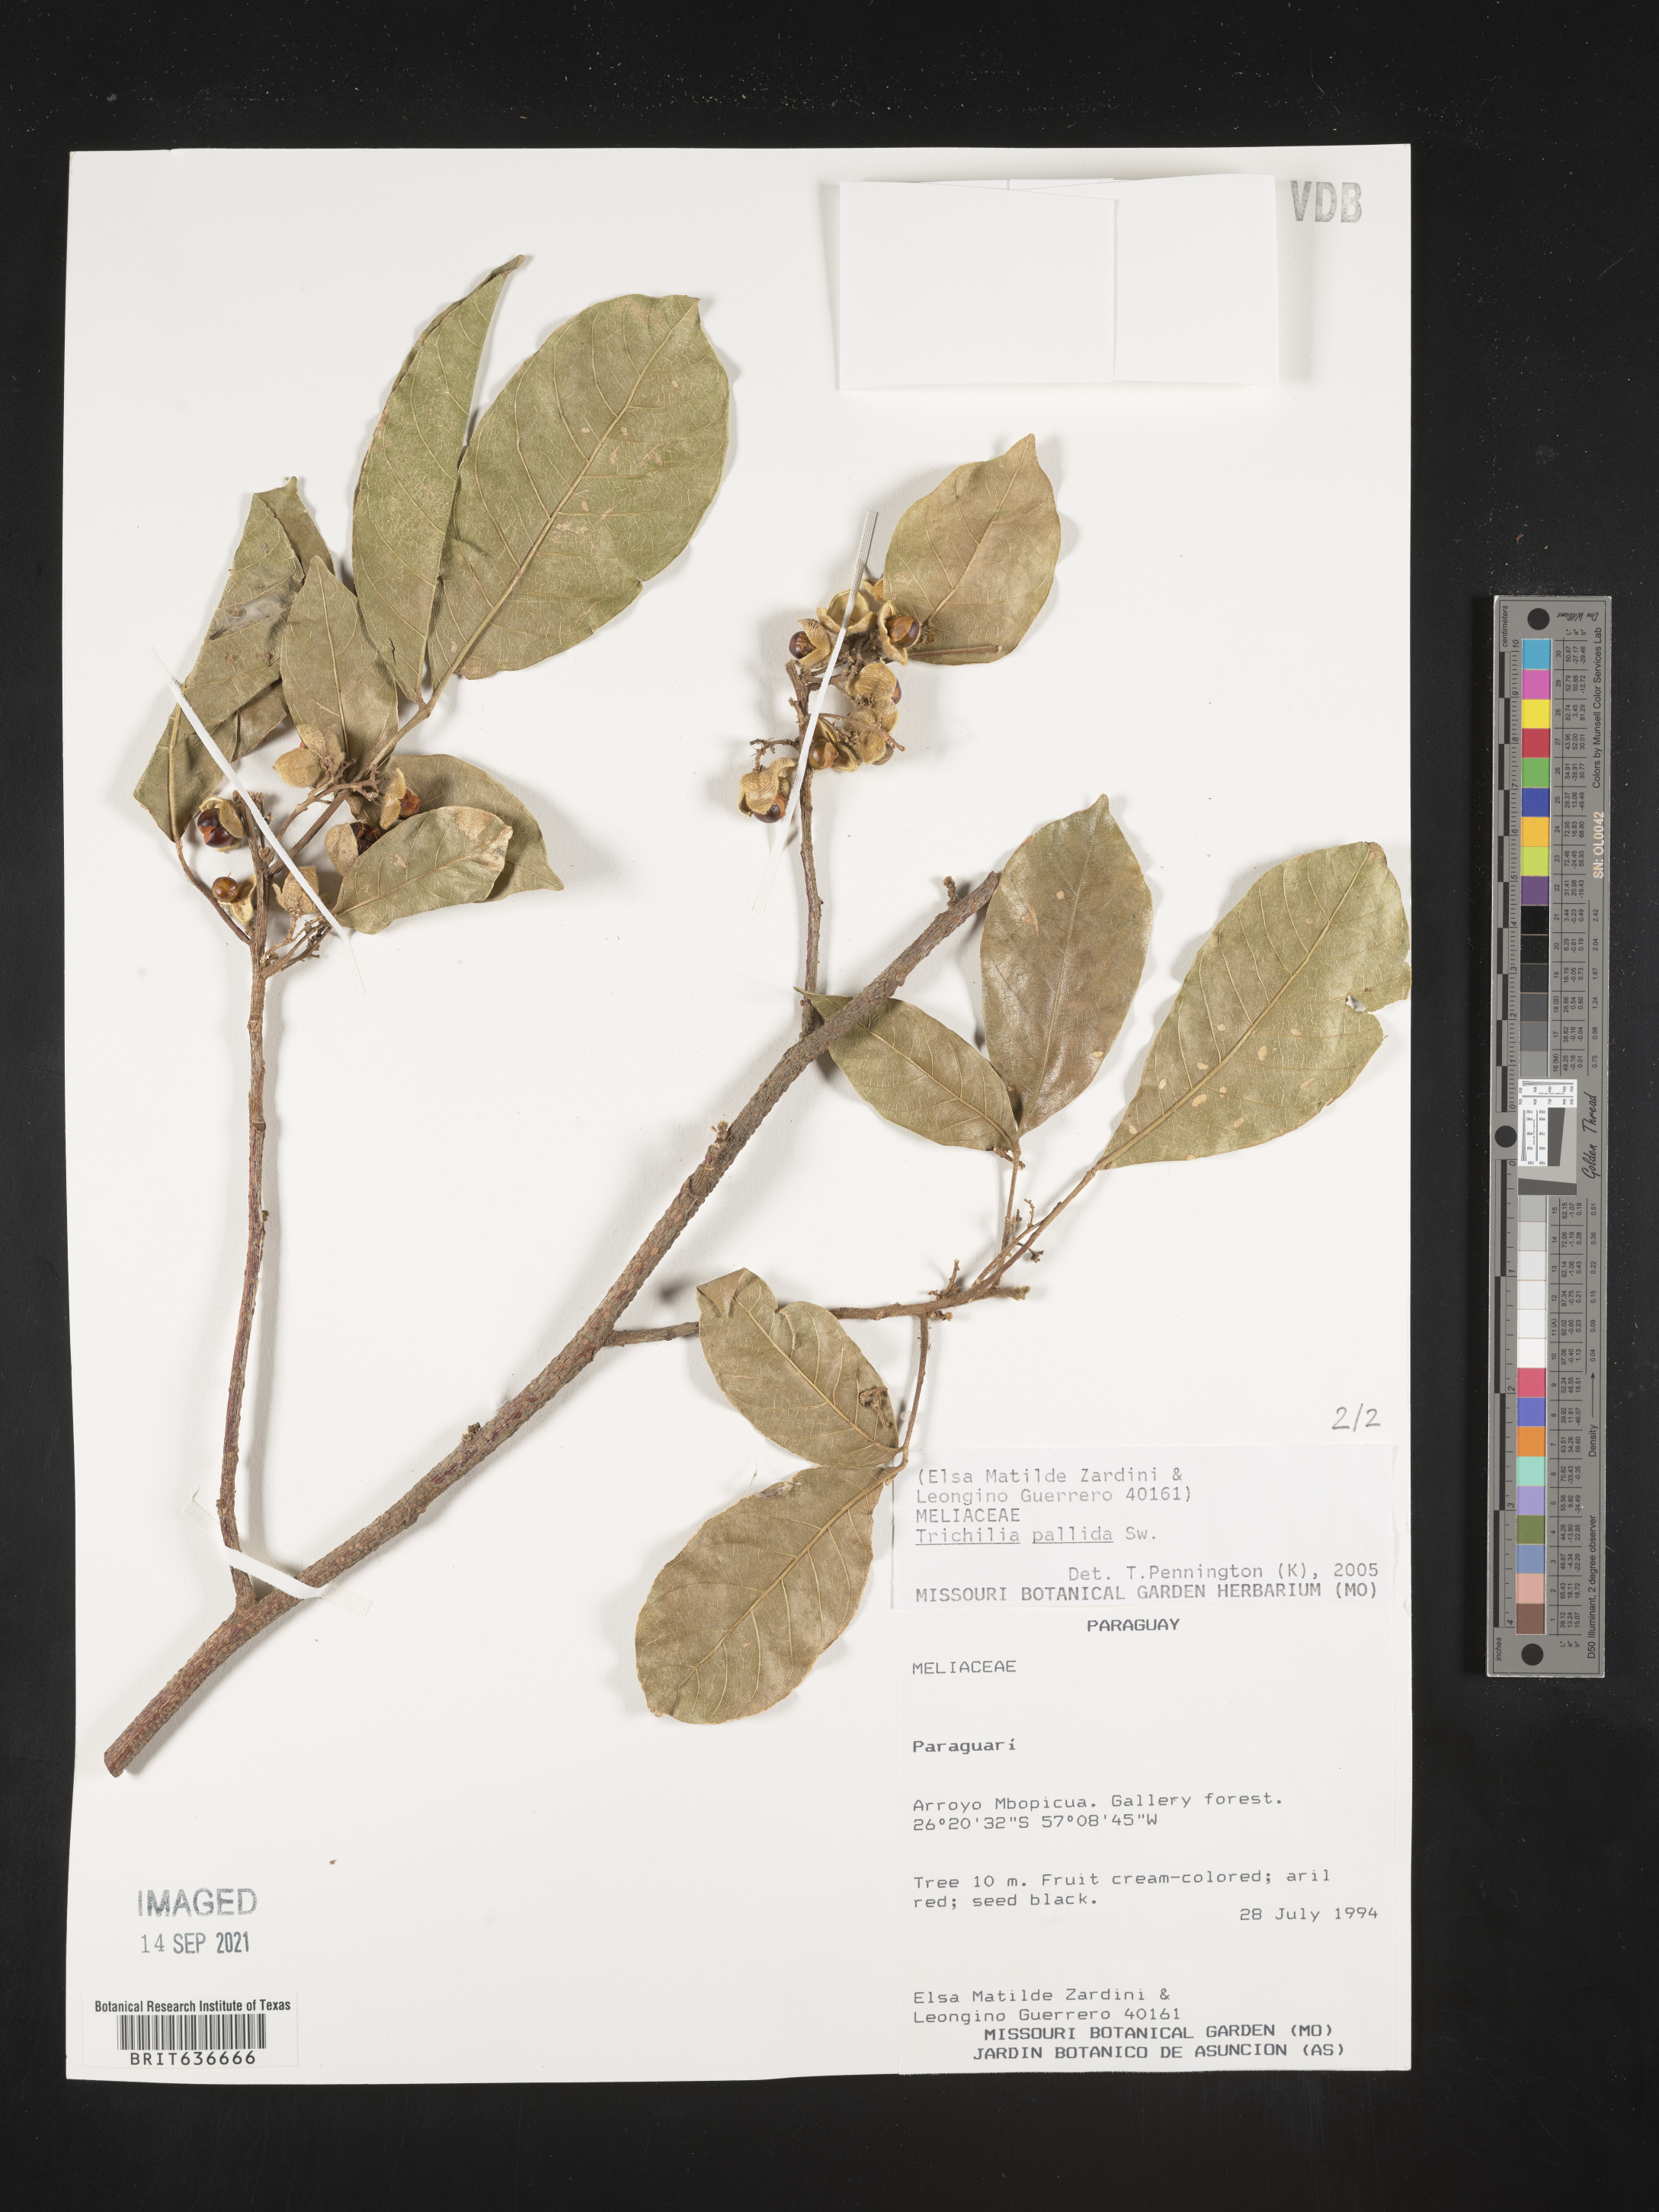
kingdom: Plantae
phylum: Tracheophyta
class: Magnoliopsida
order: Sapindales
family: Meliaceae
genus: Trichilia
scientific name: Trichilia
